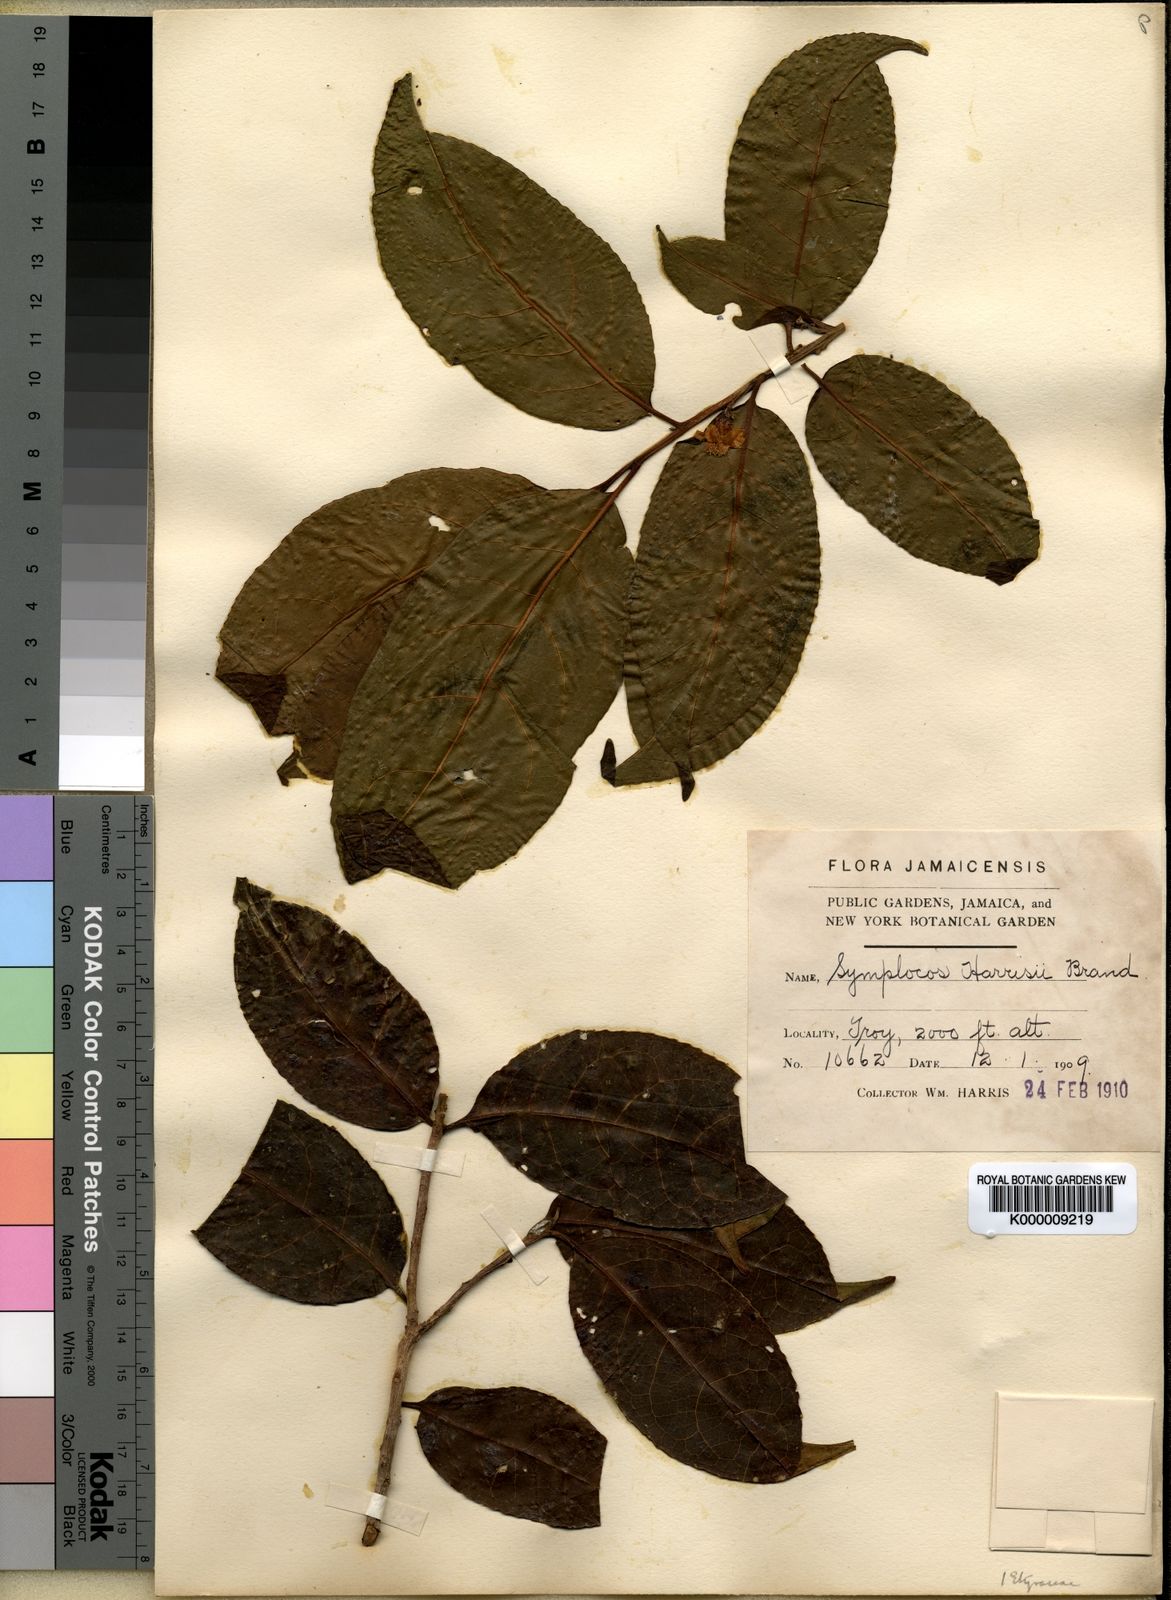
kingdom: Plantae
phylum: Tracheophyta
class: Magnoliopsida
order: Ericales
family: Symplocaceae
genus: Symplocos
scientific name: Symplocos octopetala
